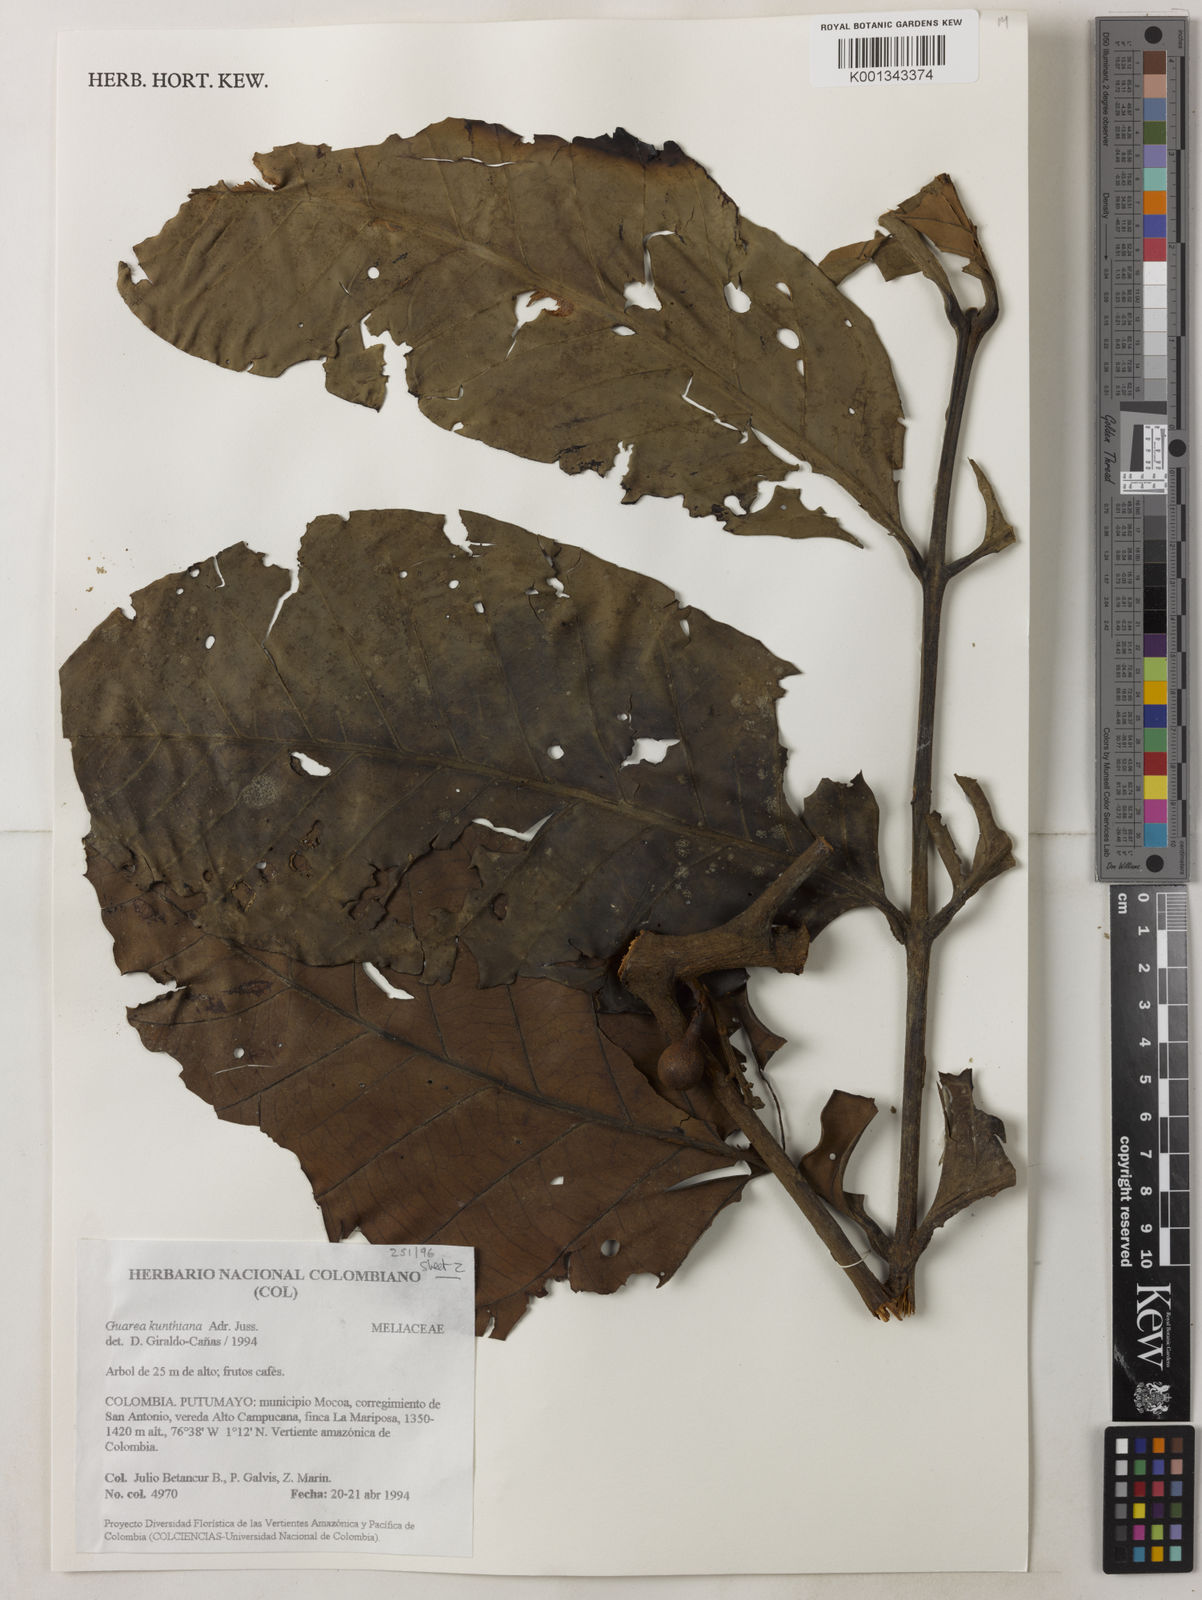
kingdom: Plantae
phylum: Tracheophyta
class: Magnoliopsida
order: Sapindales
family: Meliaceae
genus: Guarea
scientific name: Guarea kunthiana
